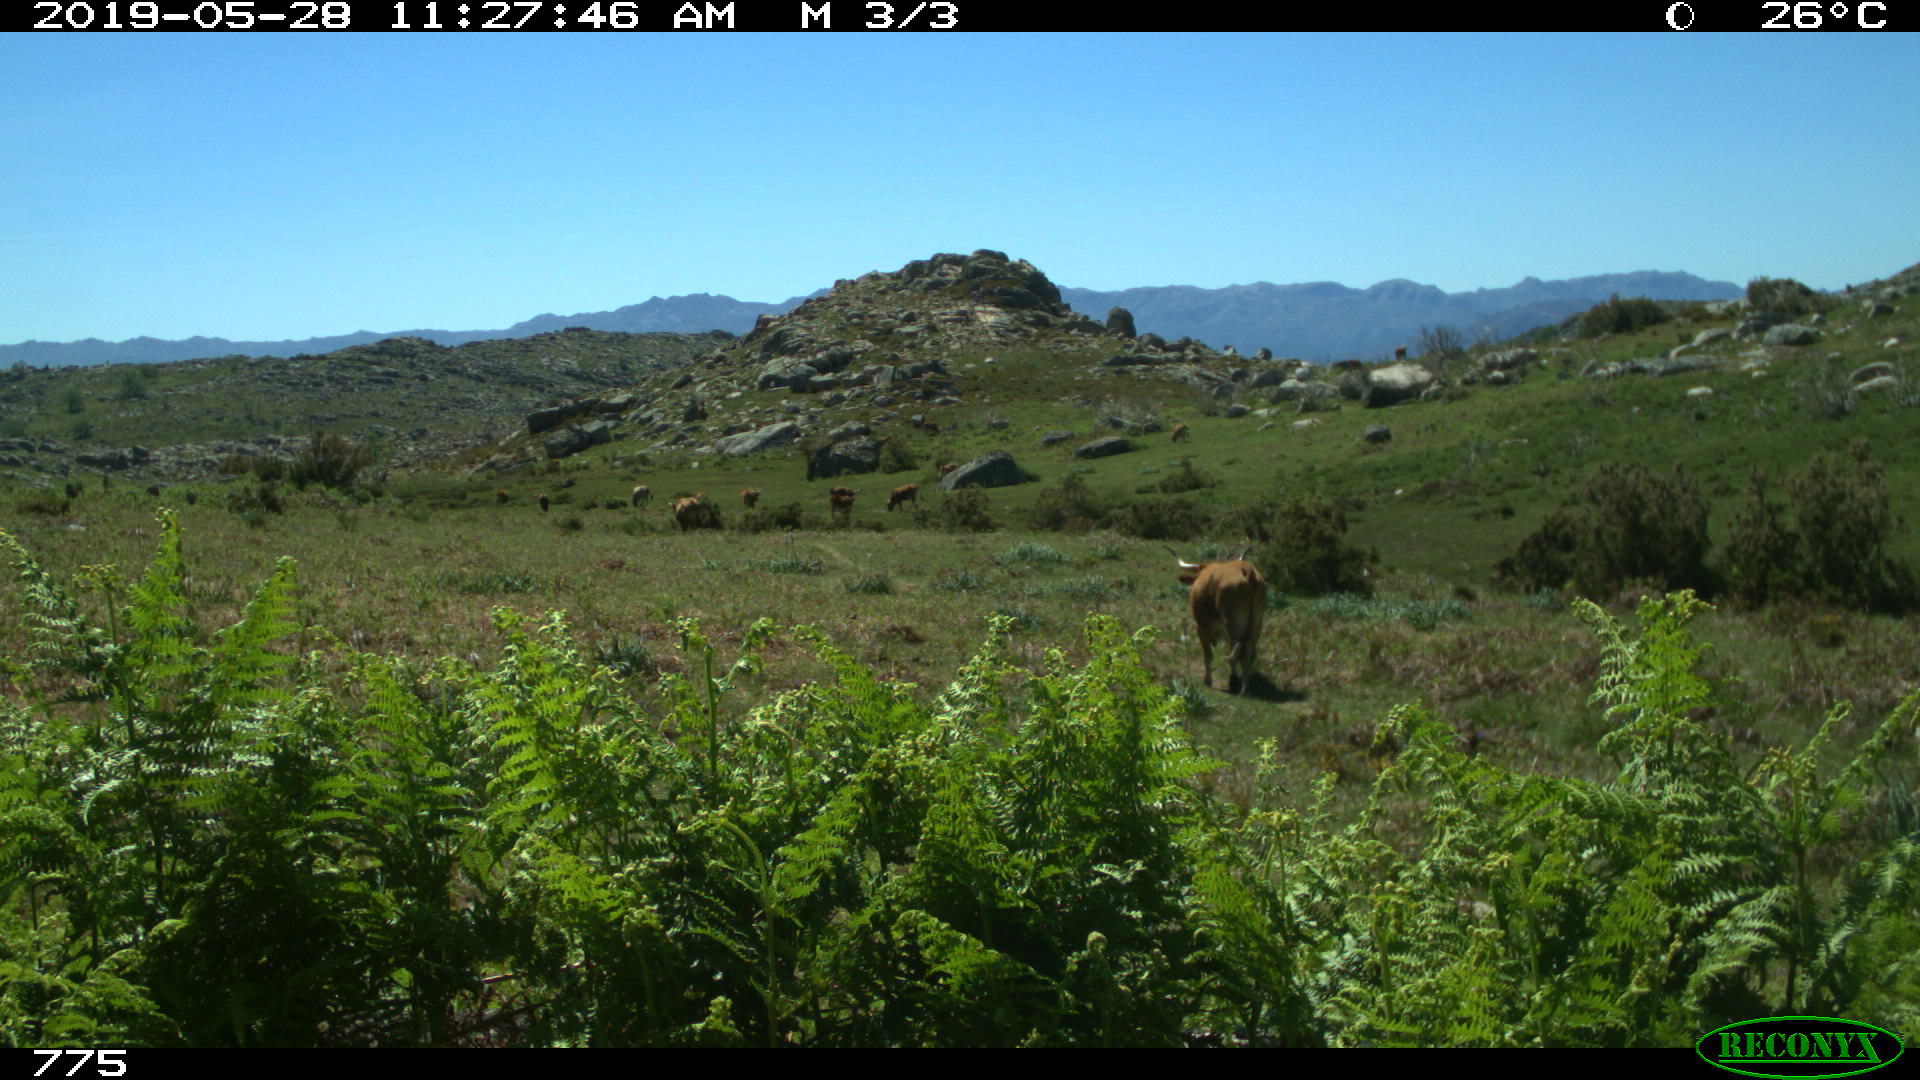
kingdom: Animalia
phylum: Chordata
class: Mammalia
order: Artiodactyla
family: Bovidae
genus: Bos
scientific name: Bos taurus
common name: Domesticated cattle
